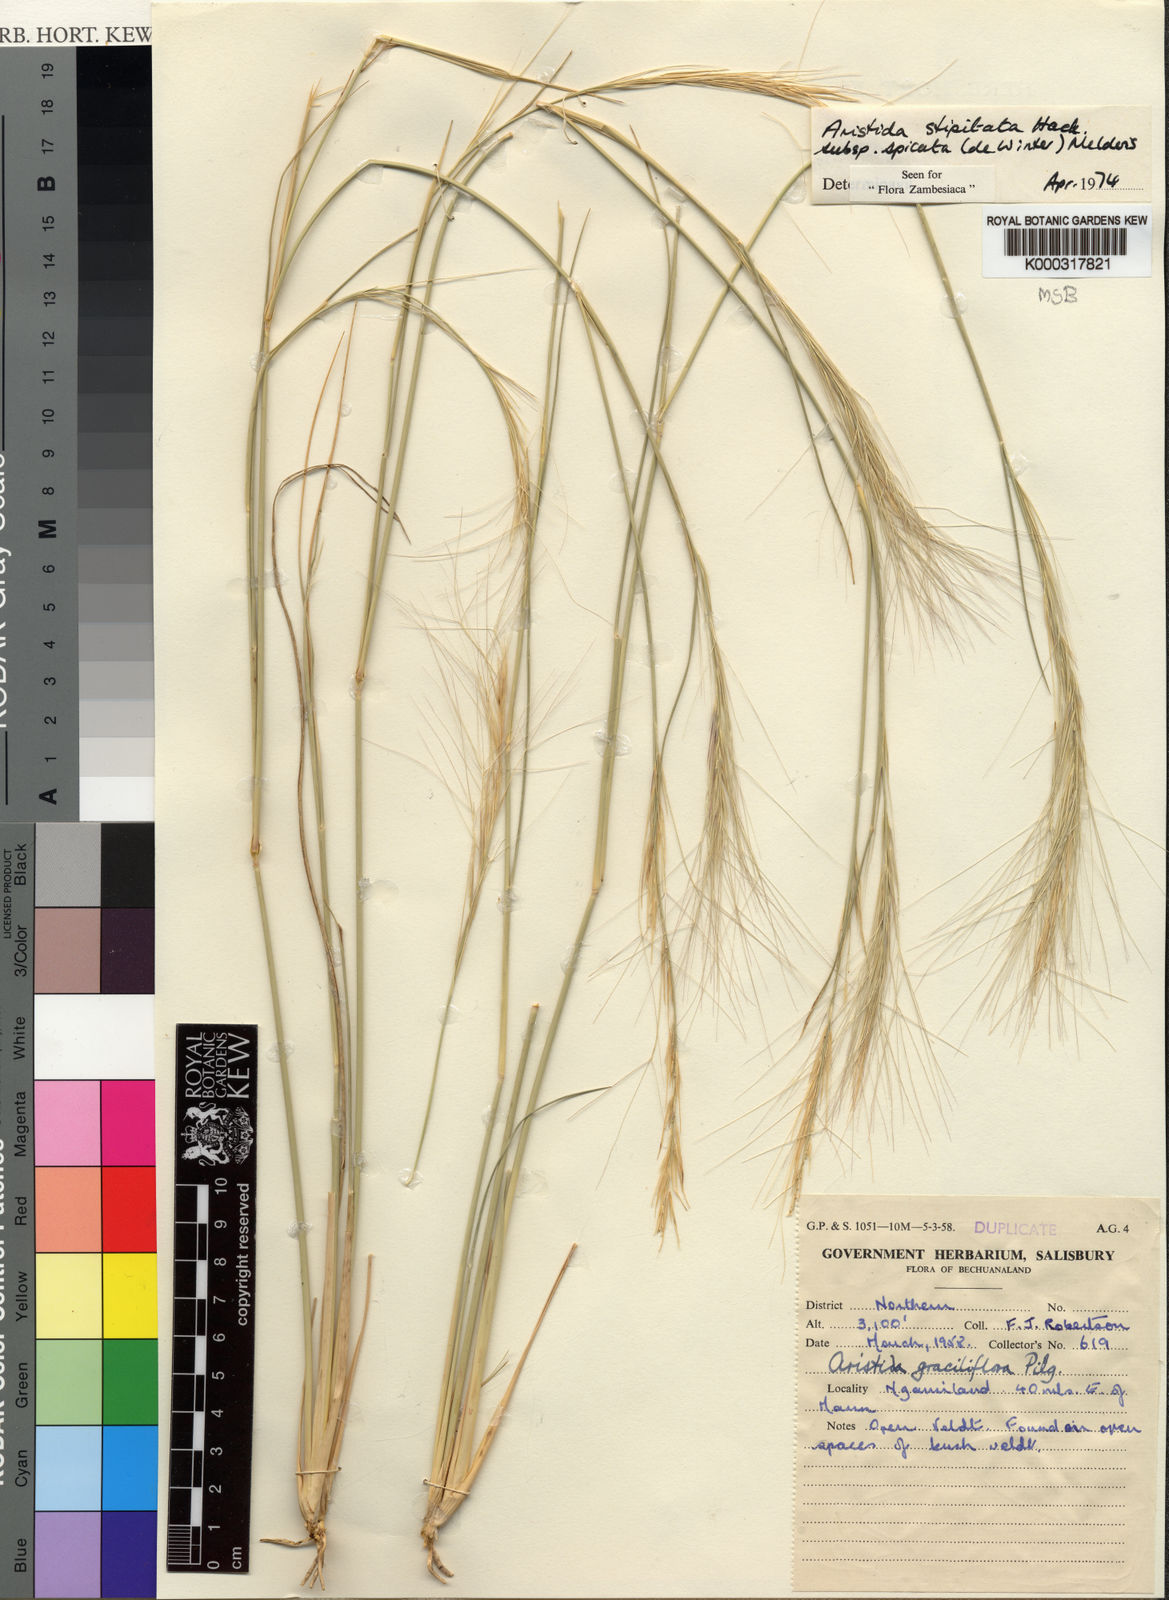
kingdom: Plantae
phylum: Tracheophyta
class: Liliopsida
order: Poales
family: Poaceae
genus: Aristida
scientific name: Aristida stipitata
